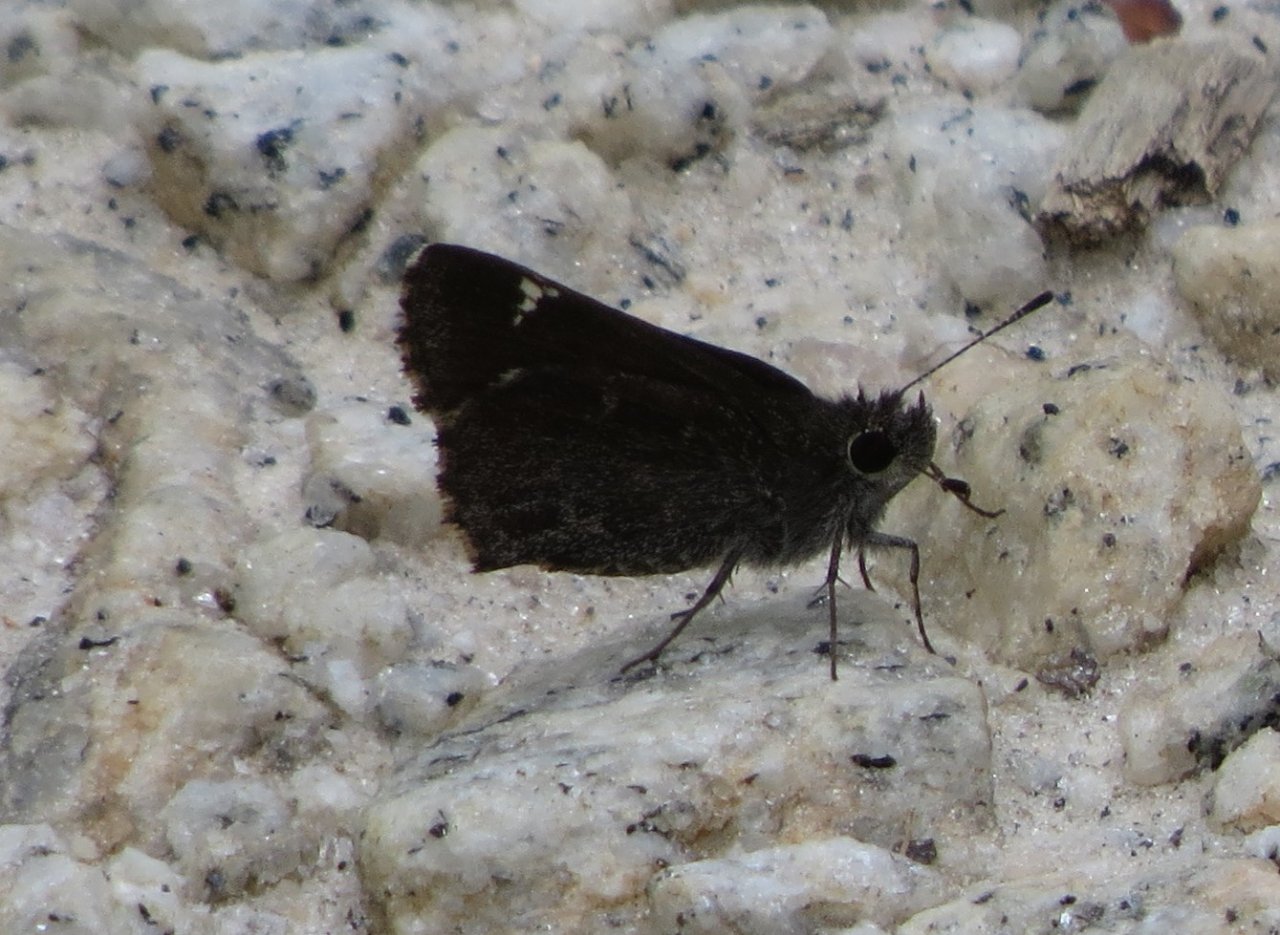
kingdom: Animalia
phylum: Arthropoda
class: Insecta
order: Lepidoptera
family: Hesperiidae
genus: Mastor
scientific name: Mastor vialis
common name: Common Roadside-Skipper
